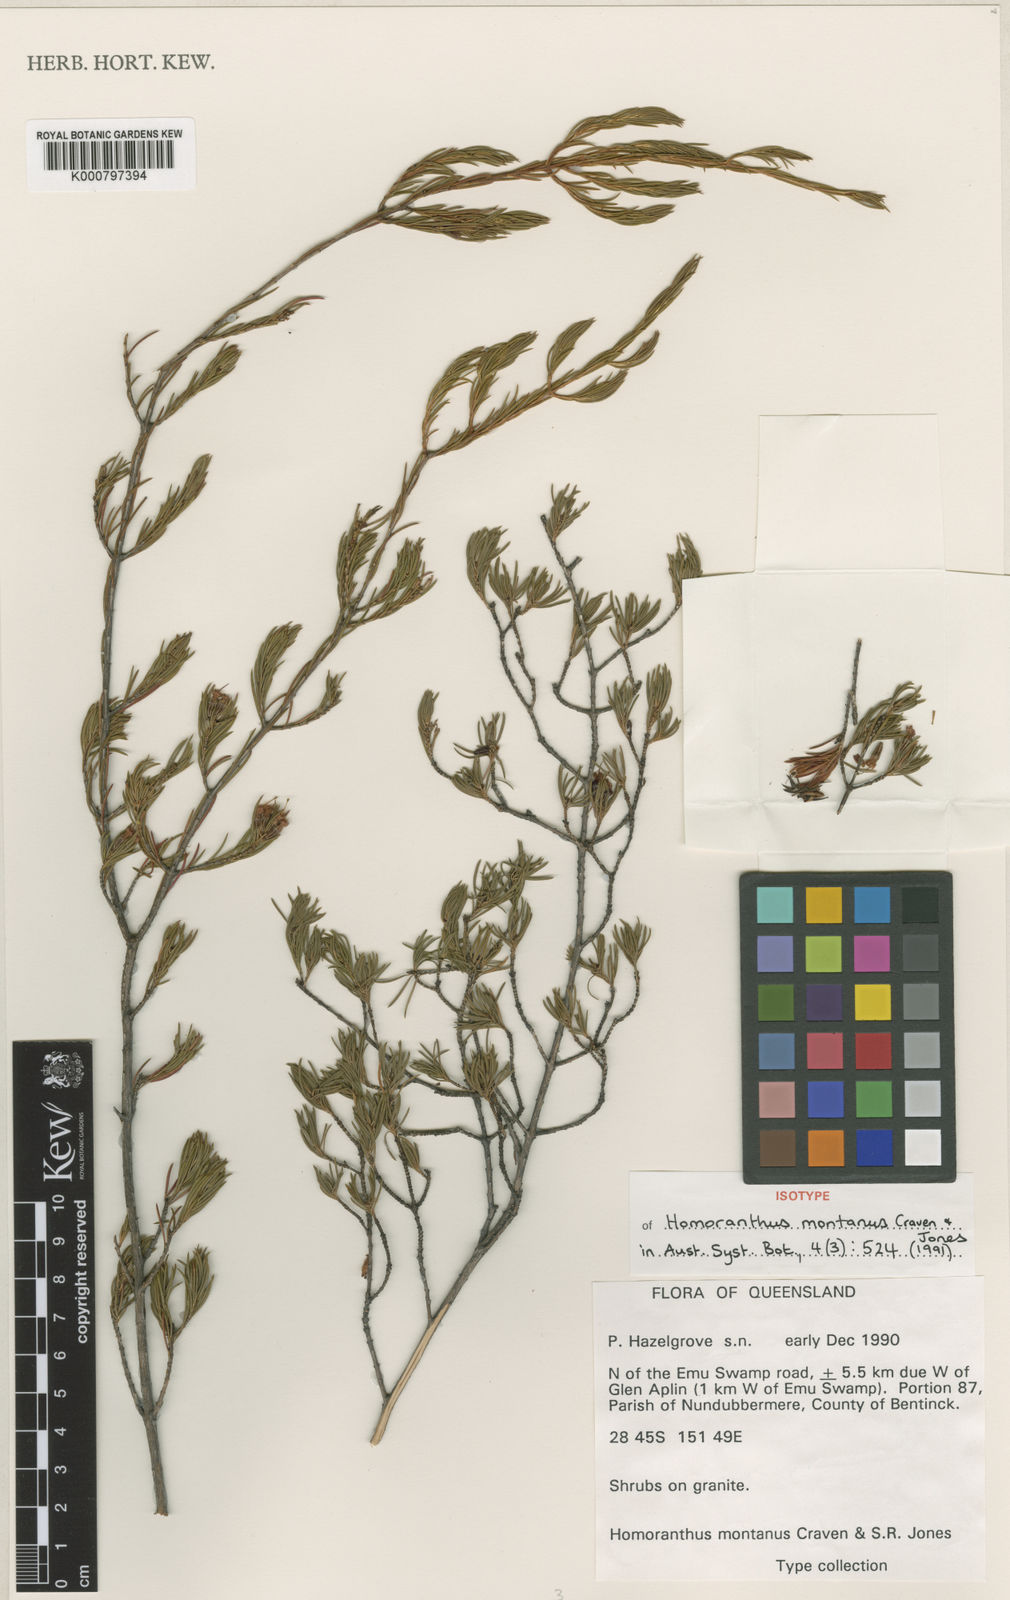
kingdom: Plantae
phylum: Tracheophyta
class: Magnoliopsida
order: Myrtales
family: Myrtaceae
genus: Homoranthus
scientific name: Homoranthus montanus
